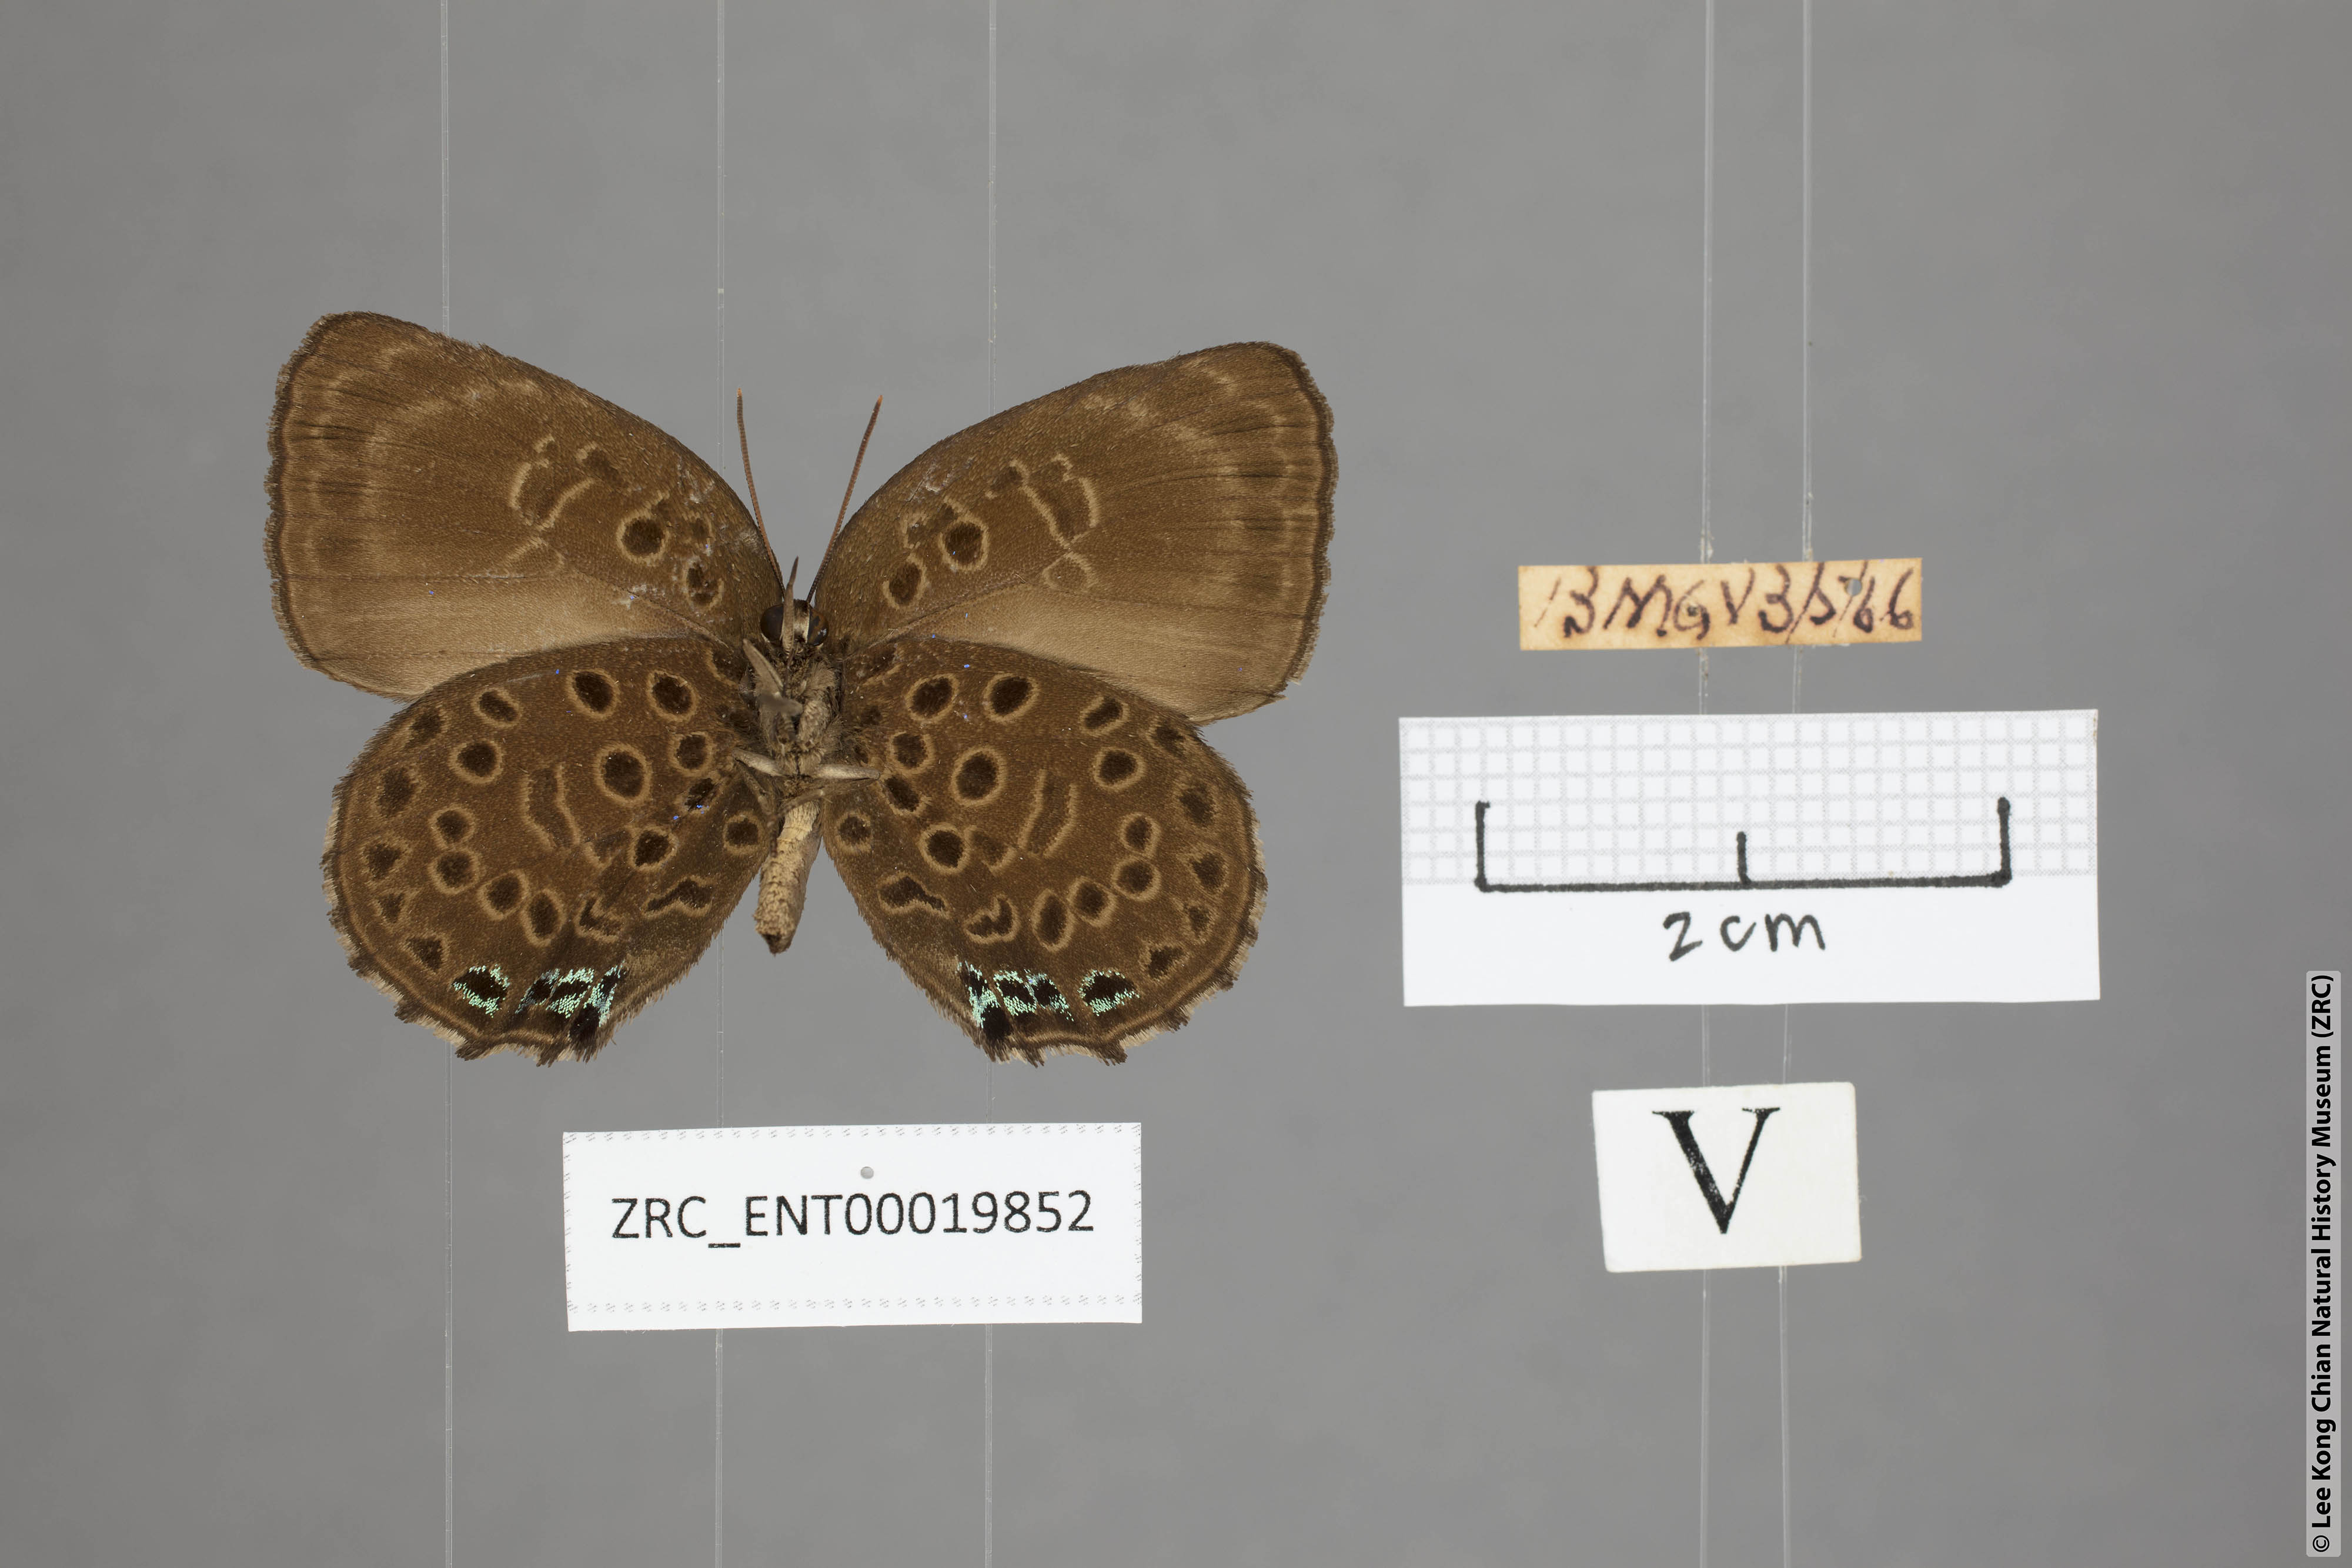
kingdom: Animalia
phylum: Arthropoda
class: Insecta
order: Lepidoptera
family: Lycaenidae
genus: Arhopala
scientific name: Arhopala similis
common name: Druce's oakblue
